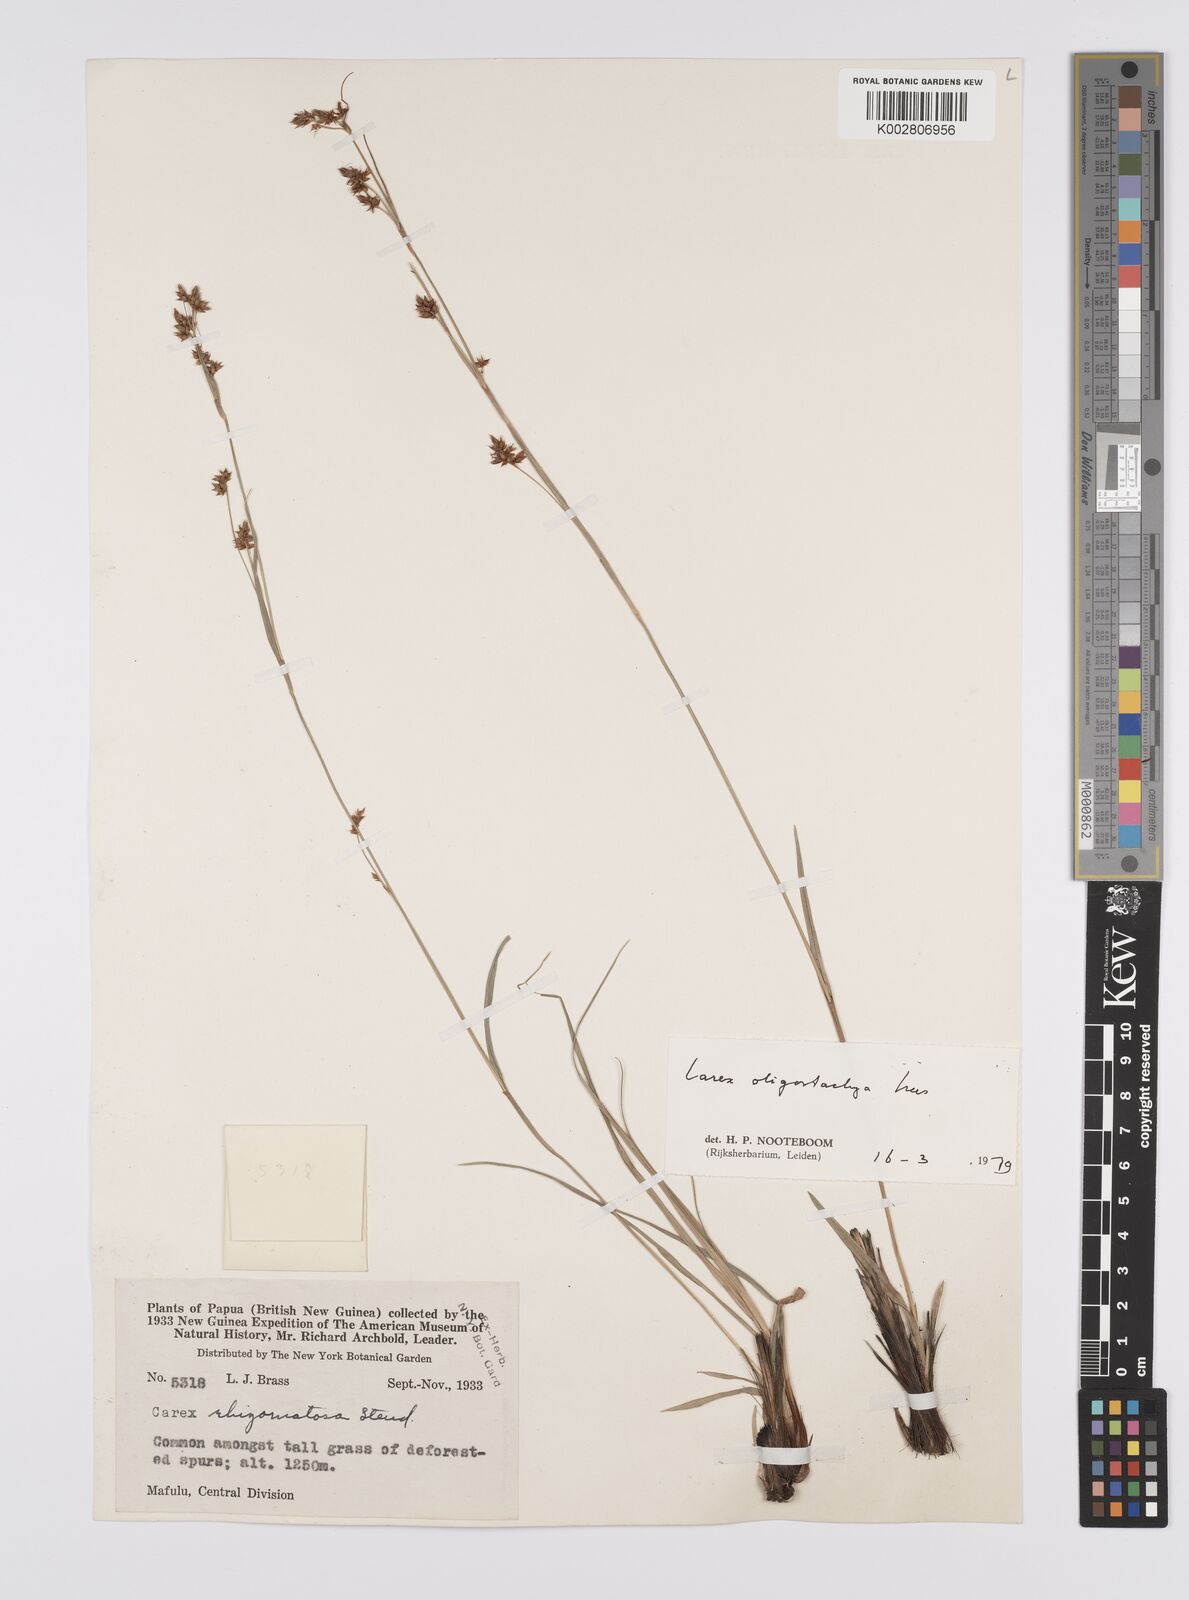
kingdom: Plantae
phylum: Tracheophyta
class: Liliopsida
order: Poales
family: Cyperaceae
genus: Carex
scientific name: Carex oligostachya
